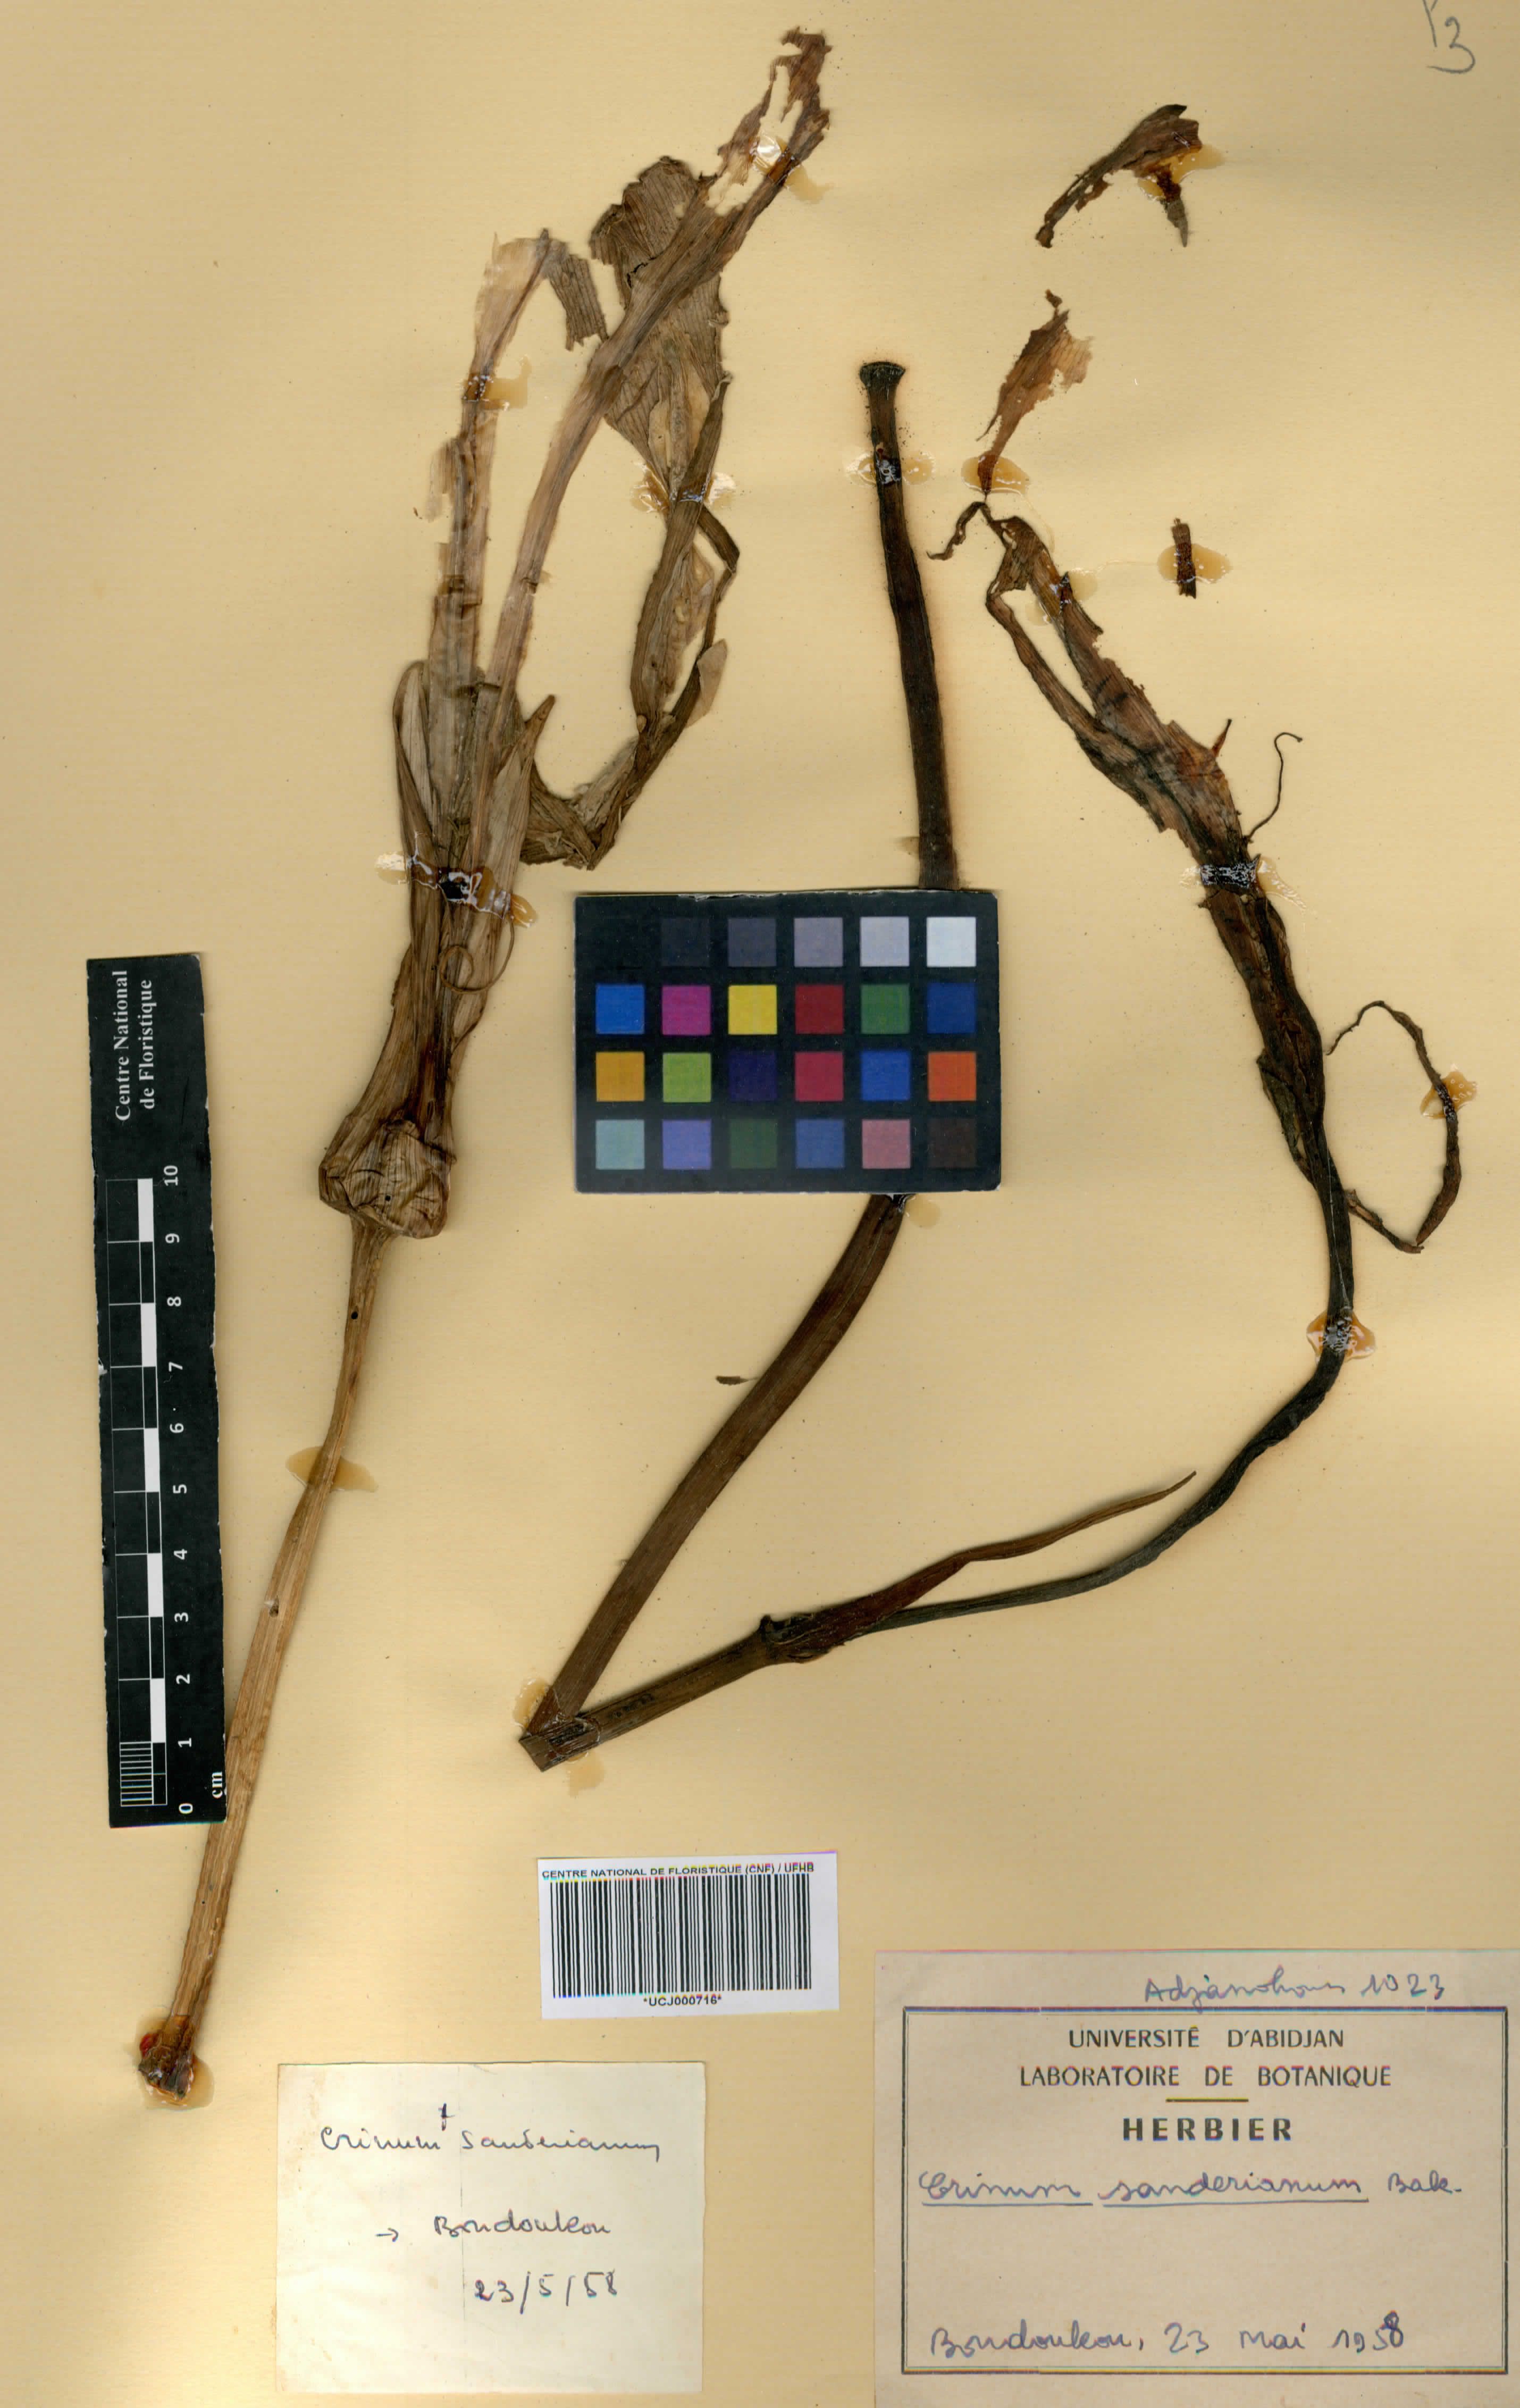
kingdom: Plantae
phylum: Tracheophyta
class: Liliopsida
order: Asparagales
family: Amaryllidaceae
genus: Crinum
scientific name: Crinum ornatum
